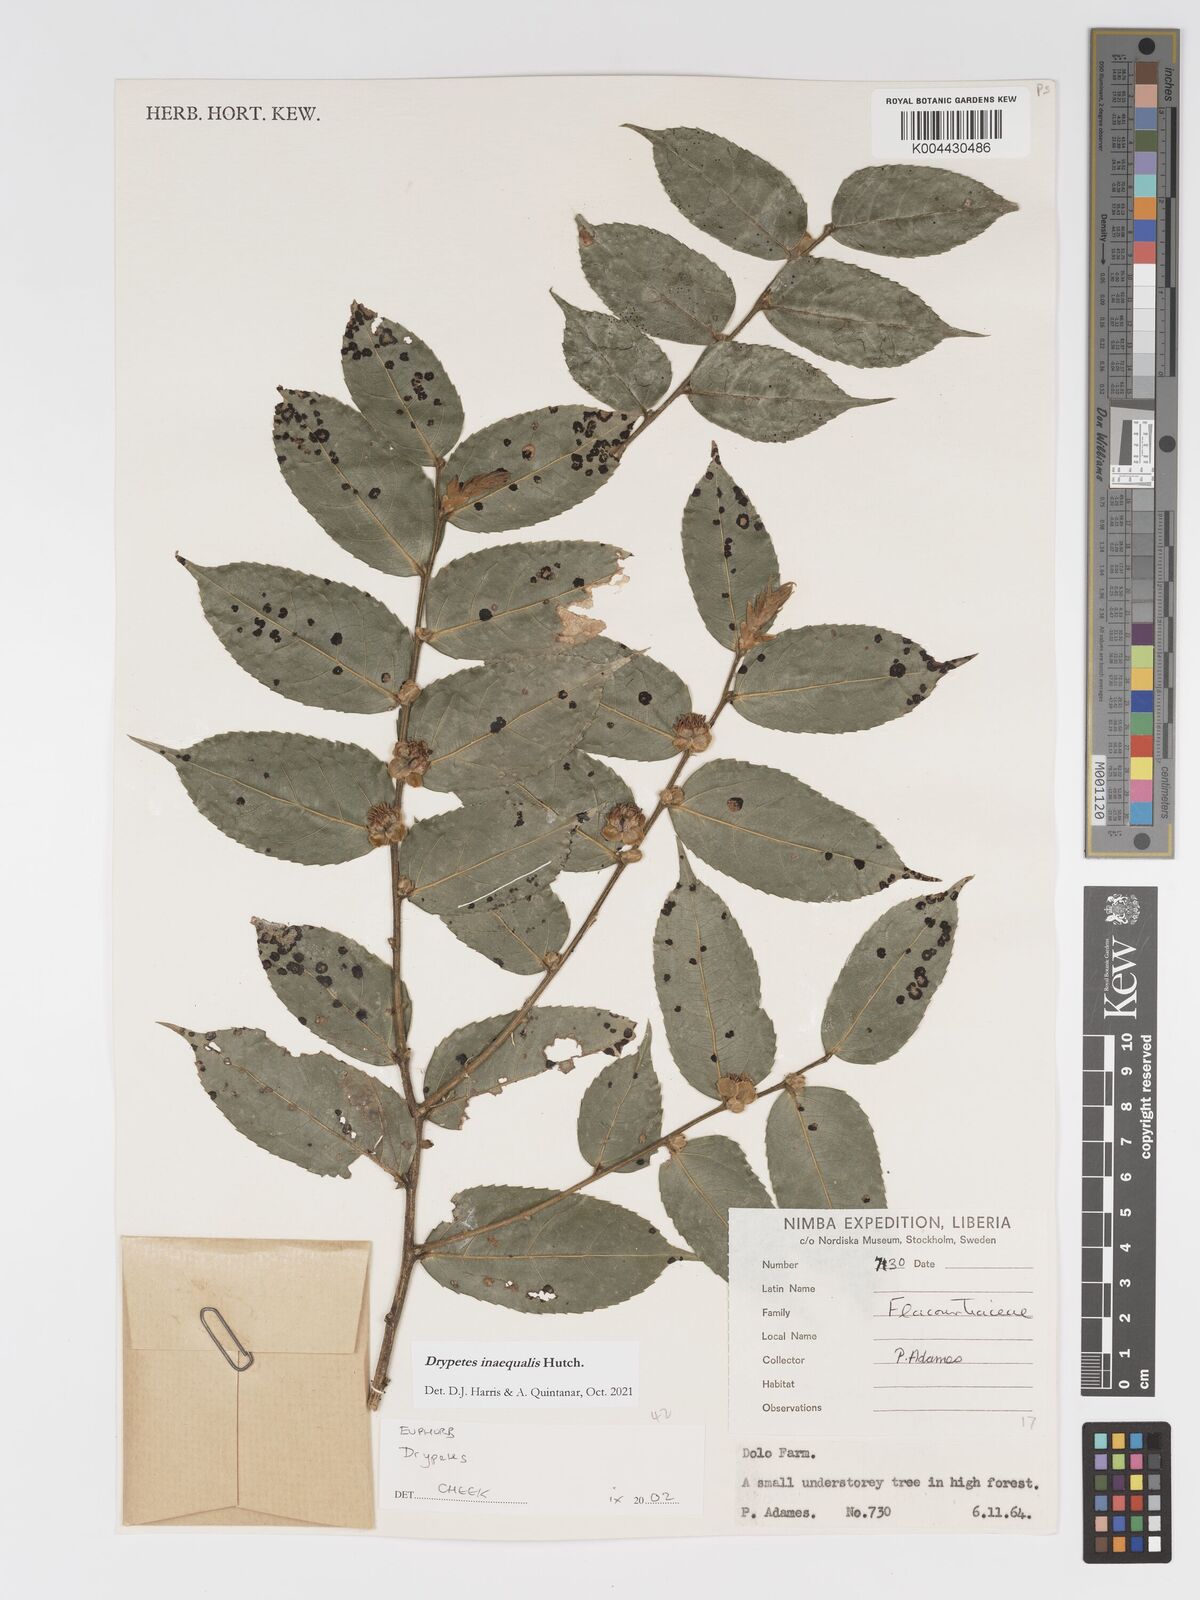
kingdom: Plantae
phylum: Tracheophyta
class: Magnoliopsida
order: Malpighiales
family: Putranjivaceae
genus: Drypetes
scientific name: Drypetes inaequalis
